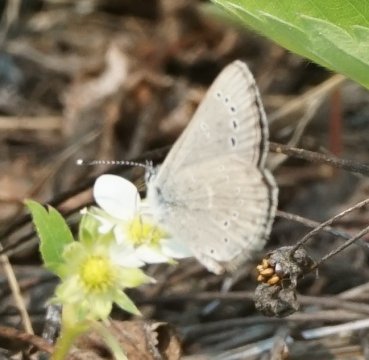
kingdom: Animalia
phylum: Arthropoda
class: Insecta
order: Lepidoptera
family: Lycaenidae
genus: Glaucopsyche
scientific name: Glaucopsyche lygdamus
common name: Silvery Blue
